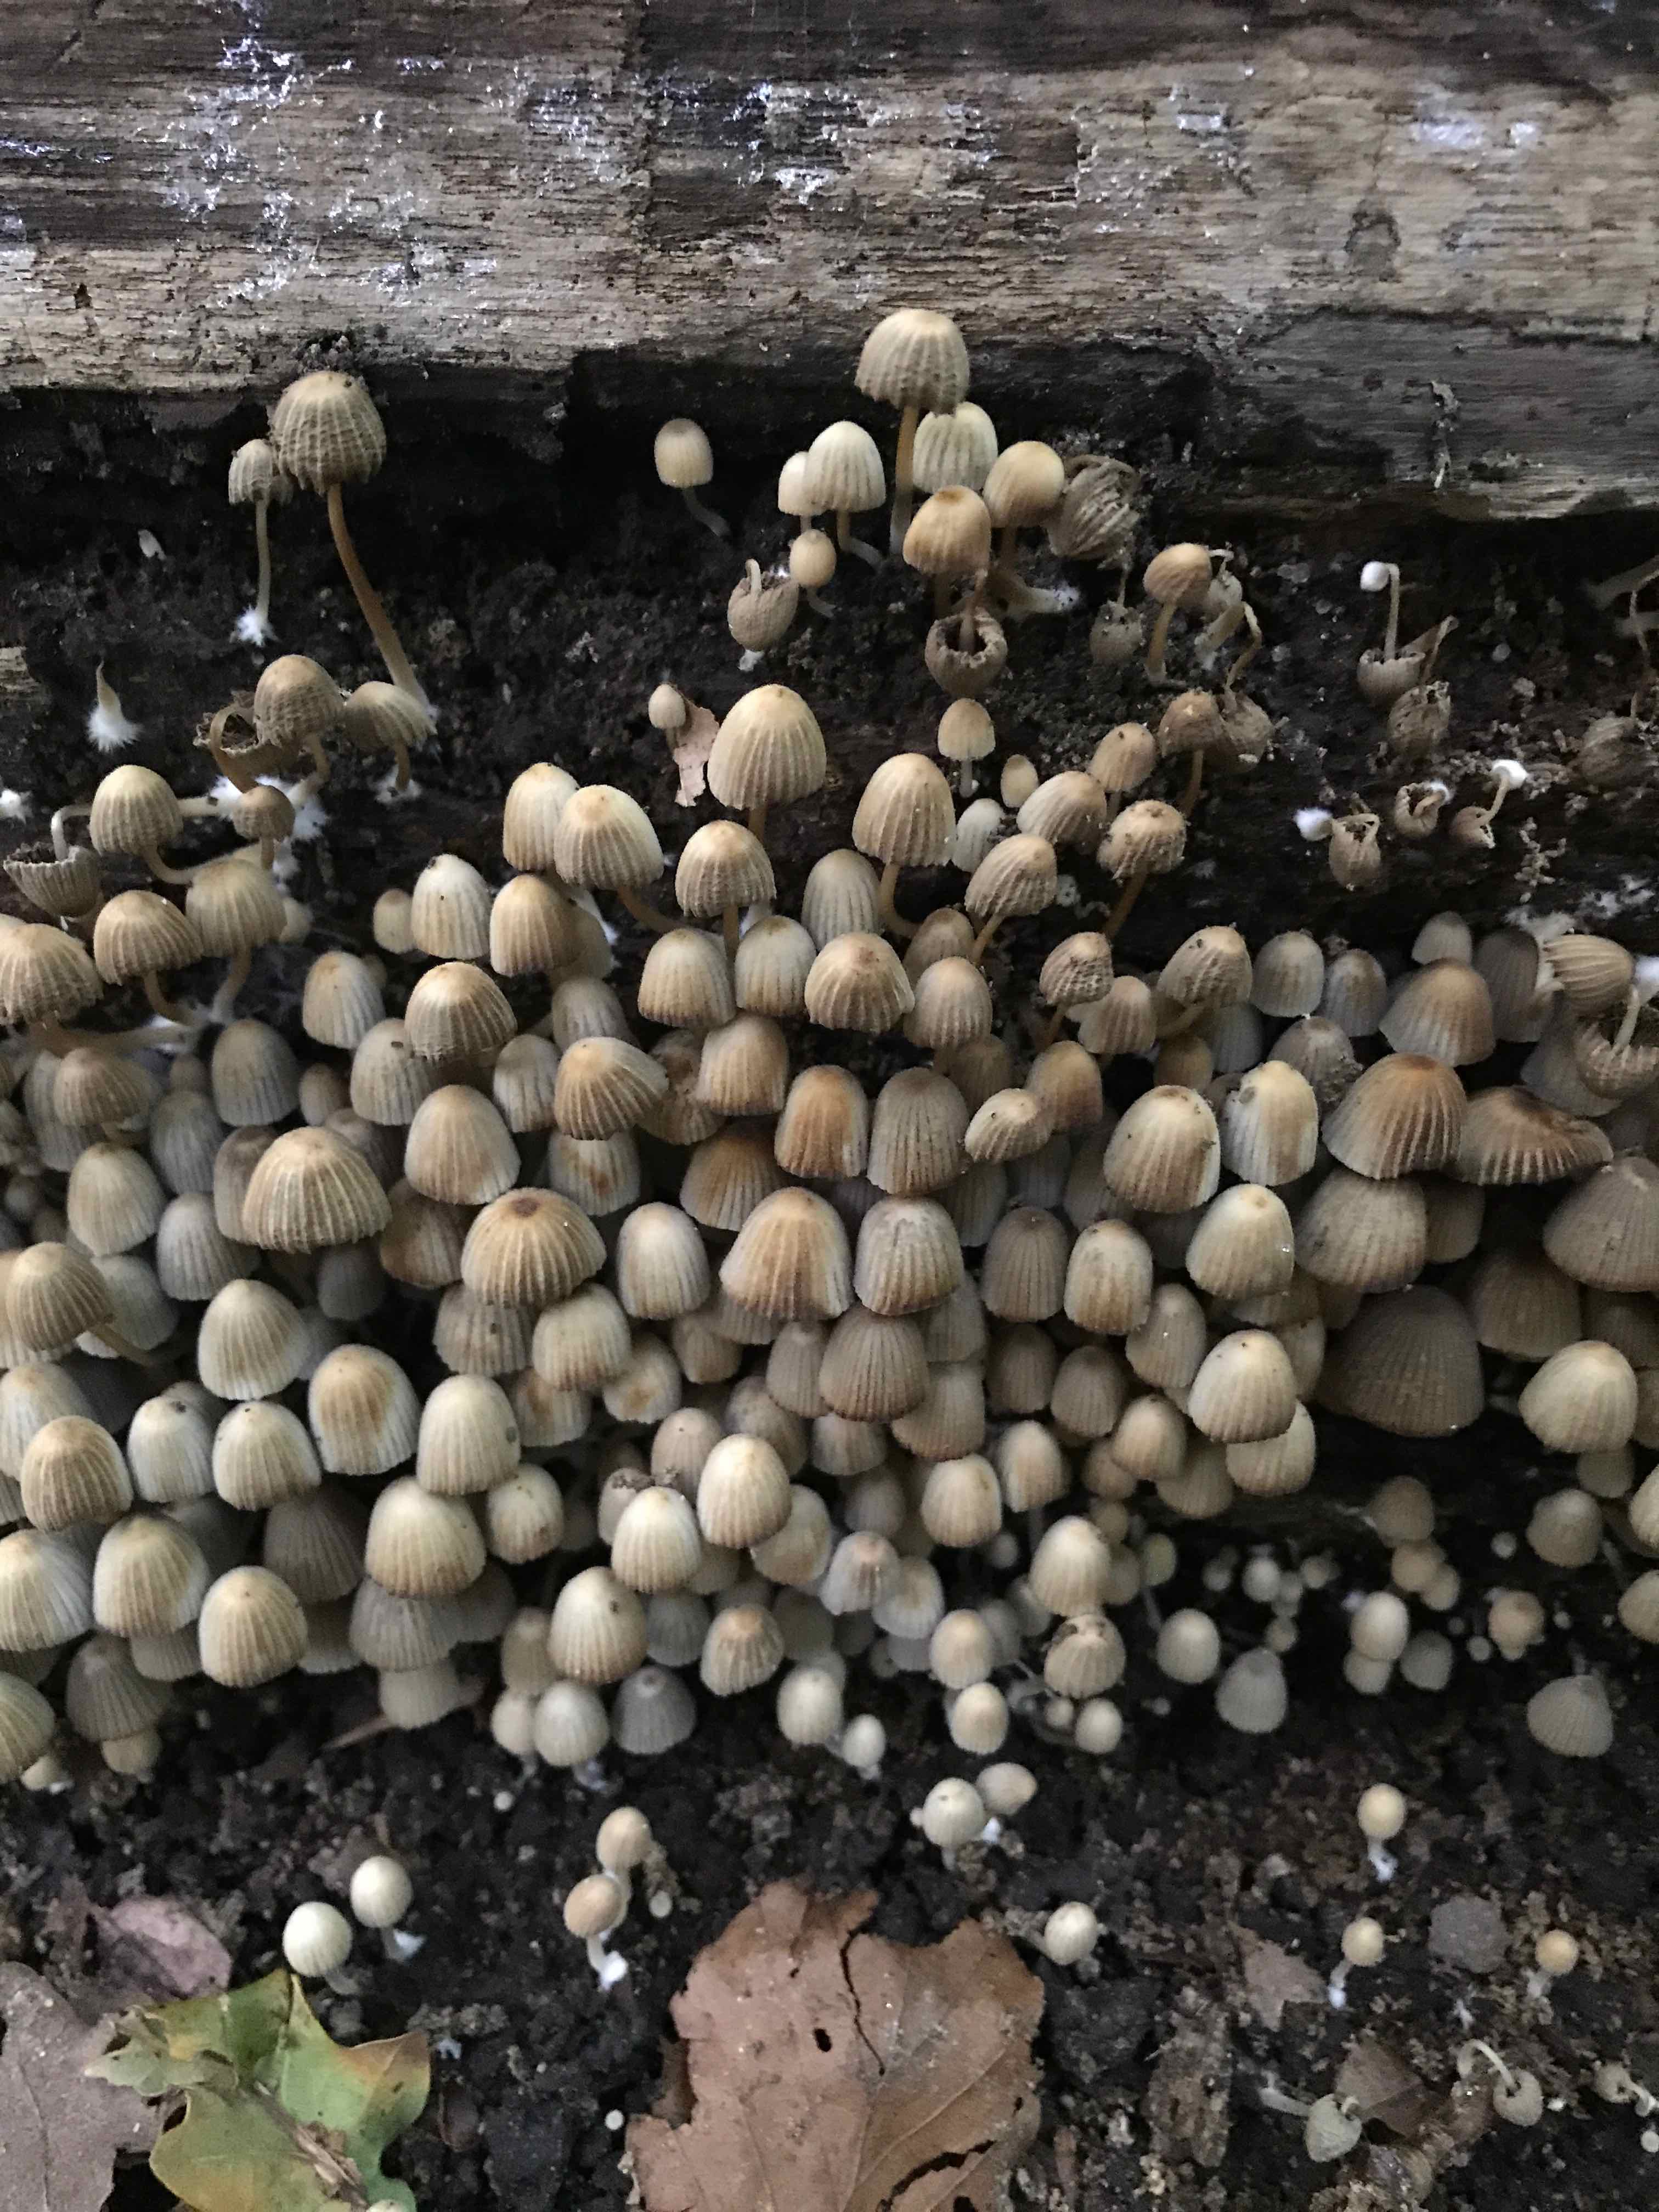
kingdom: Fungi
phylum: Basidiomycota
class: Agaricomycetes
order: Agaricales
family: Psathyrellaceae
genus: Coprinellus
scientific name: Coprinellus disseminatus
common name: bredsået blækhat
